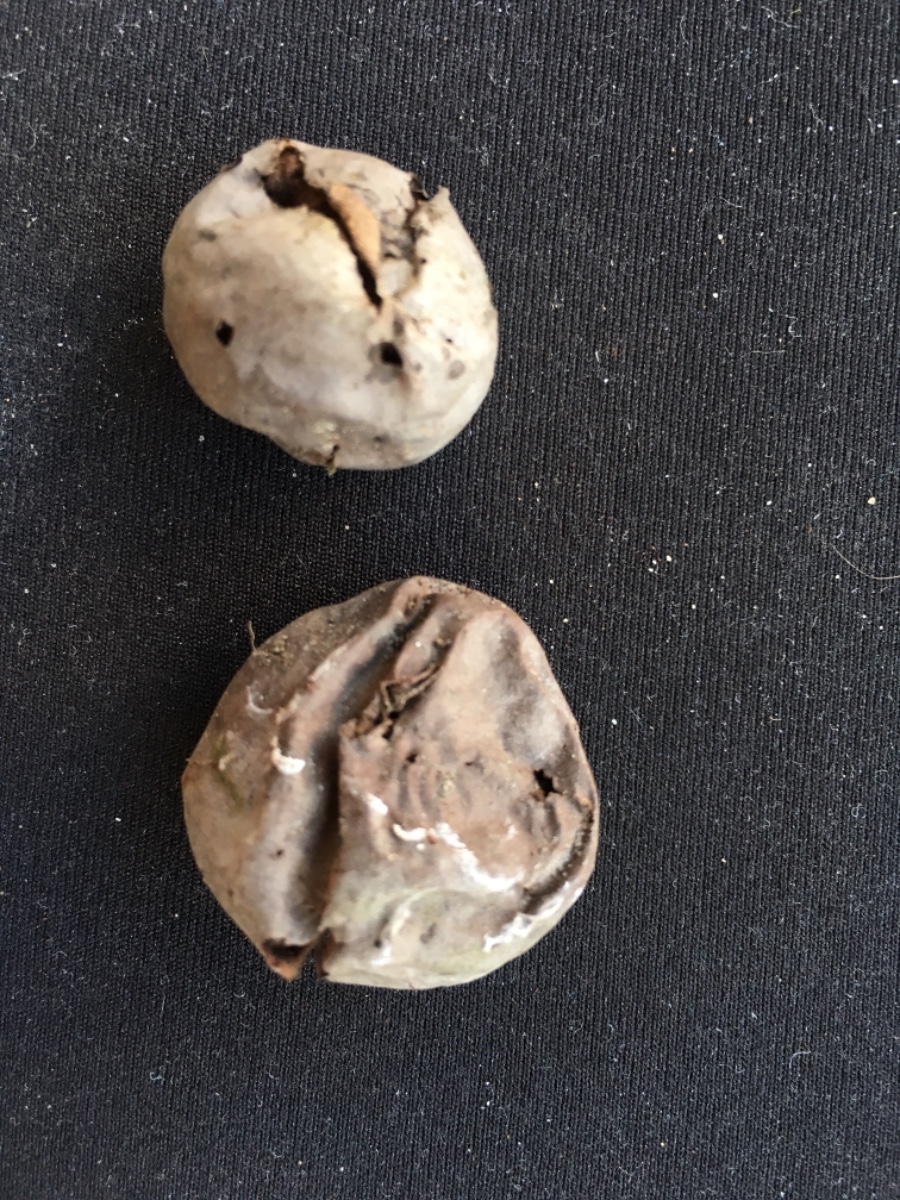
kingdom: Fungi
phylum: Basidiomycota
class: Agaricomycetes
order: Agaricales
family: Lycoperdaceae
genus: Bovista
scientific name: Bovista plumbea
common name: blygrå bovist
